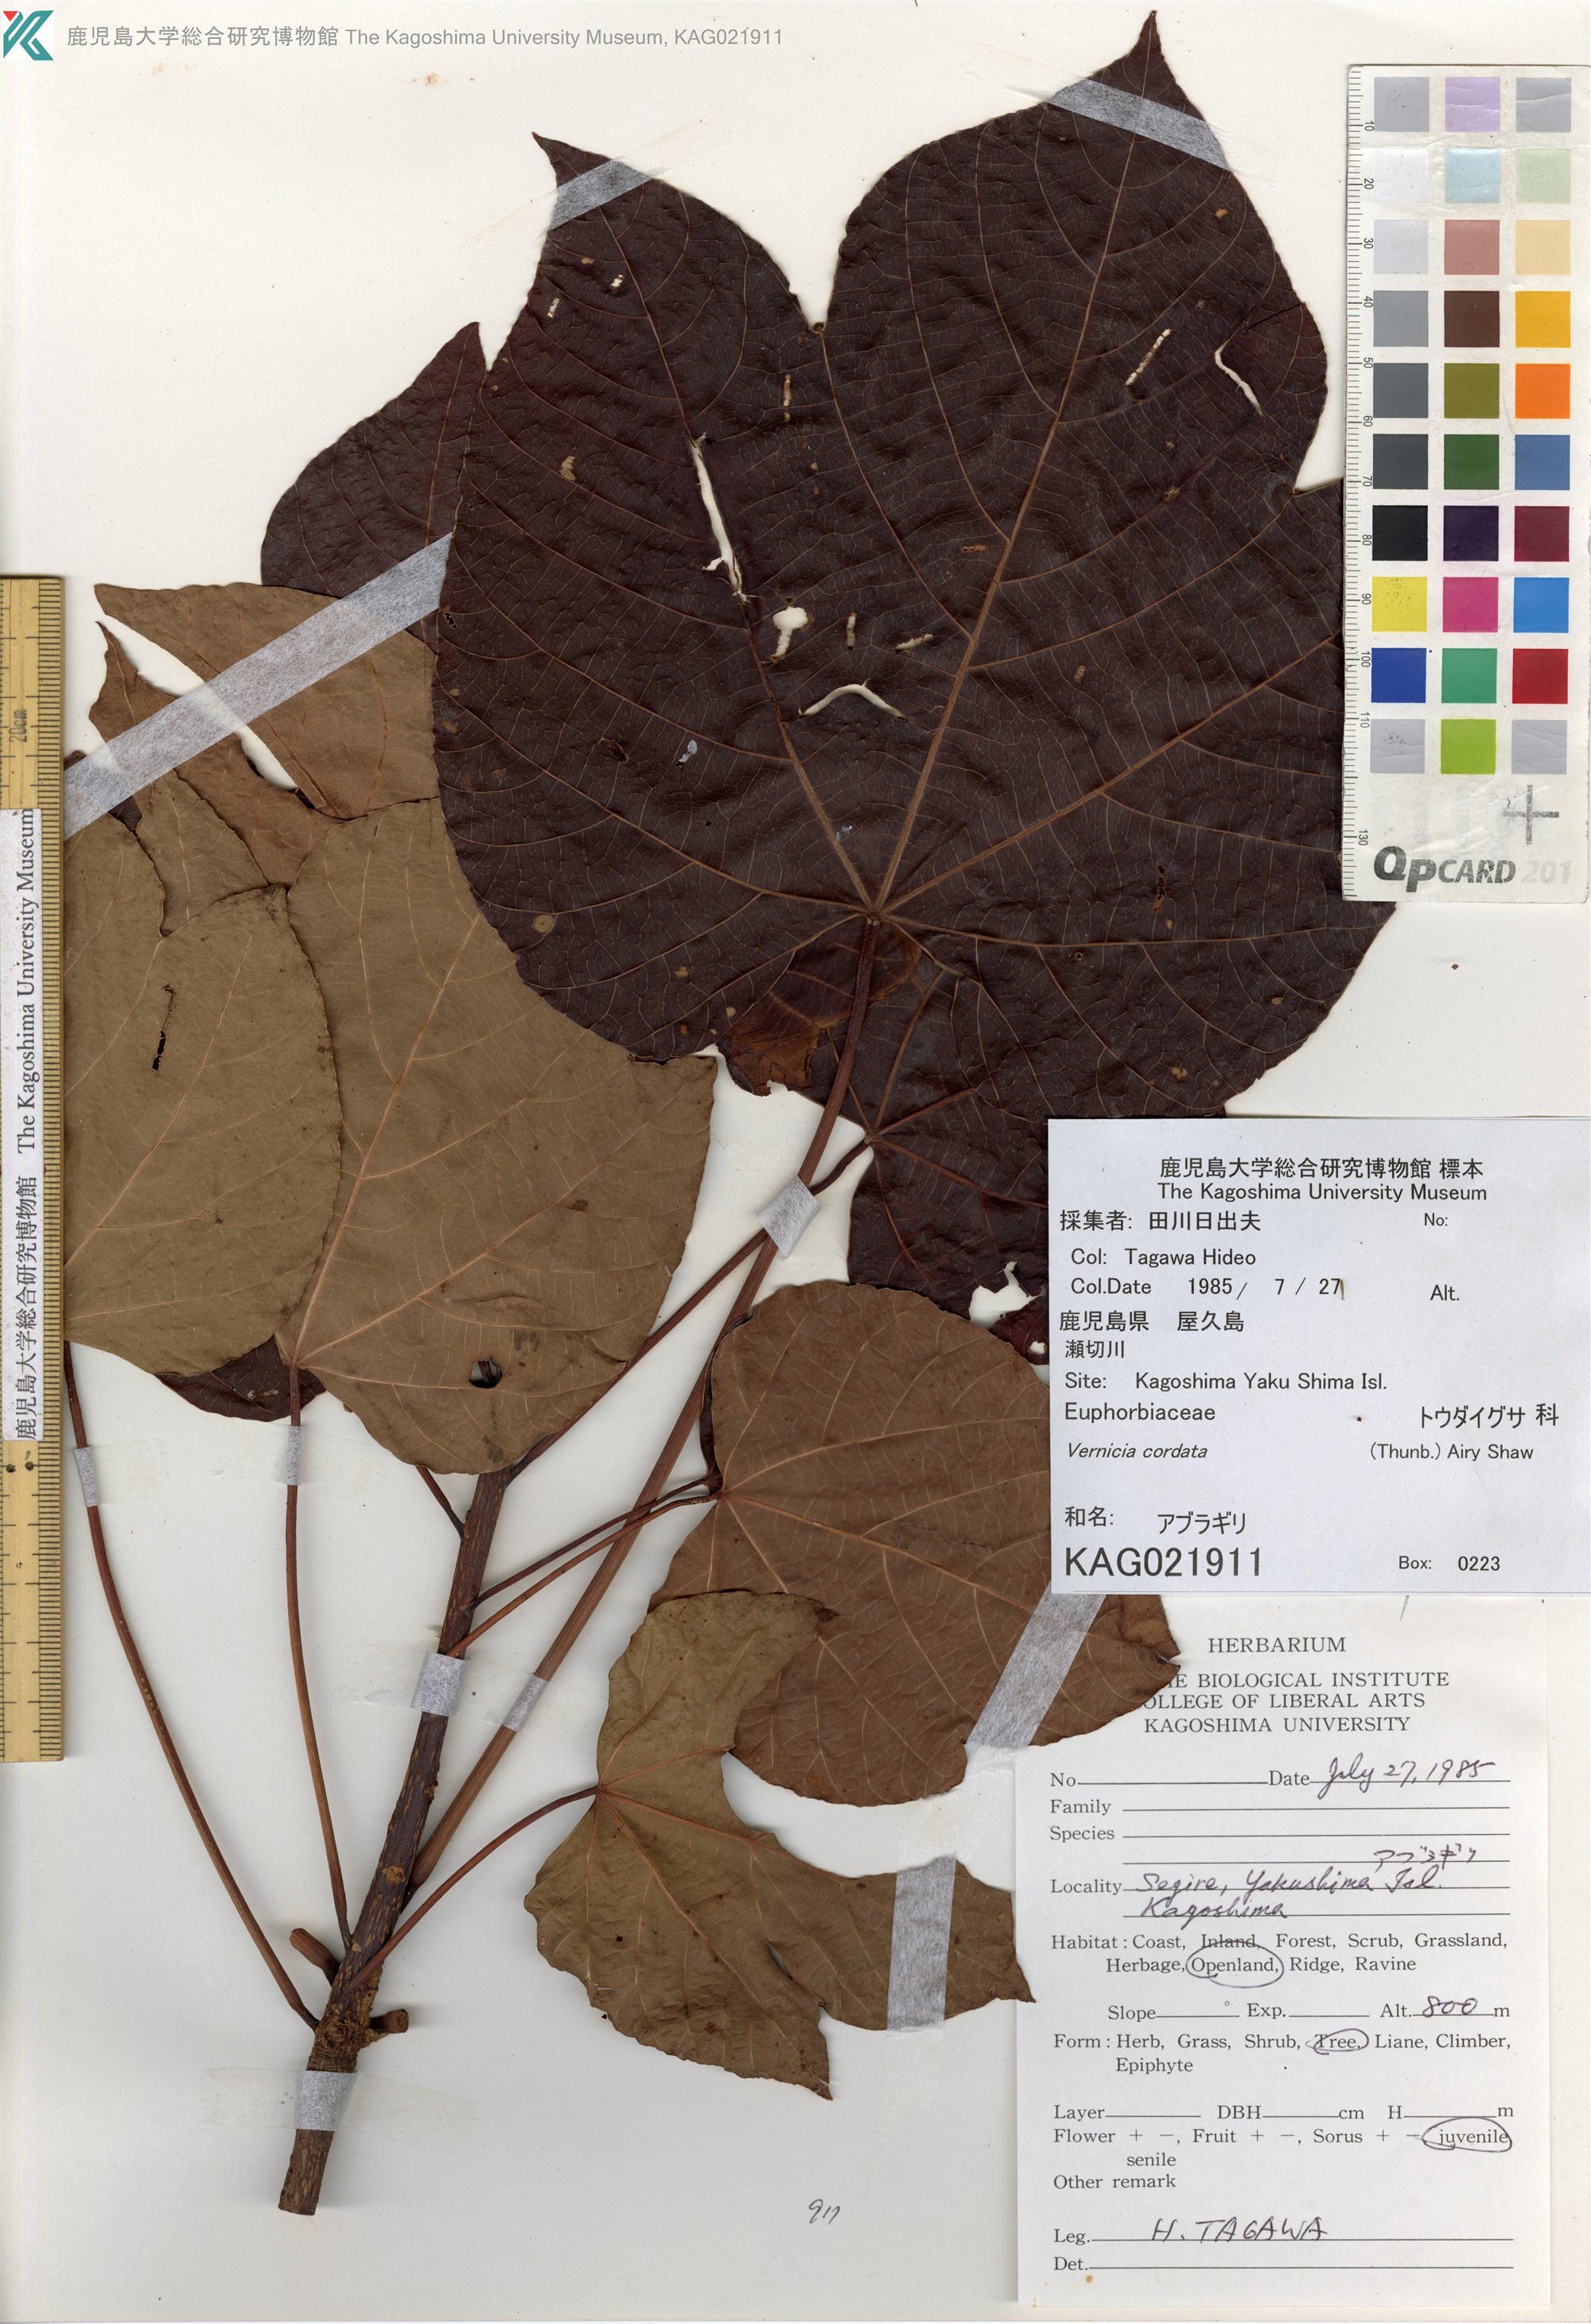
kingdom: Plantae
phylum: Tracheophyta
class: Magnoliopsida
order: Malpighiales
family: Euphorbiaceae
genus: Vernicia
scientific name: Vernicia cordata
